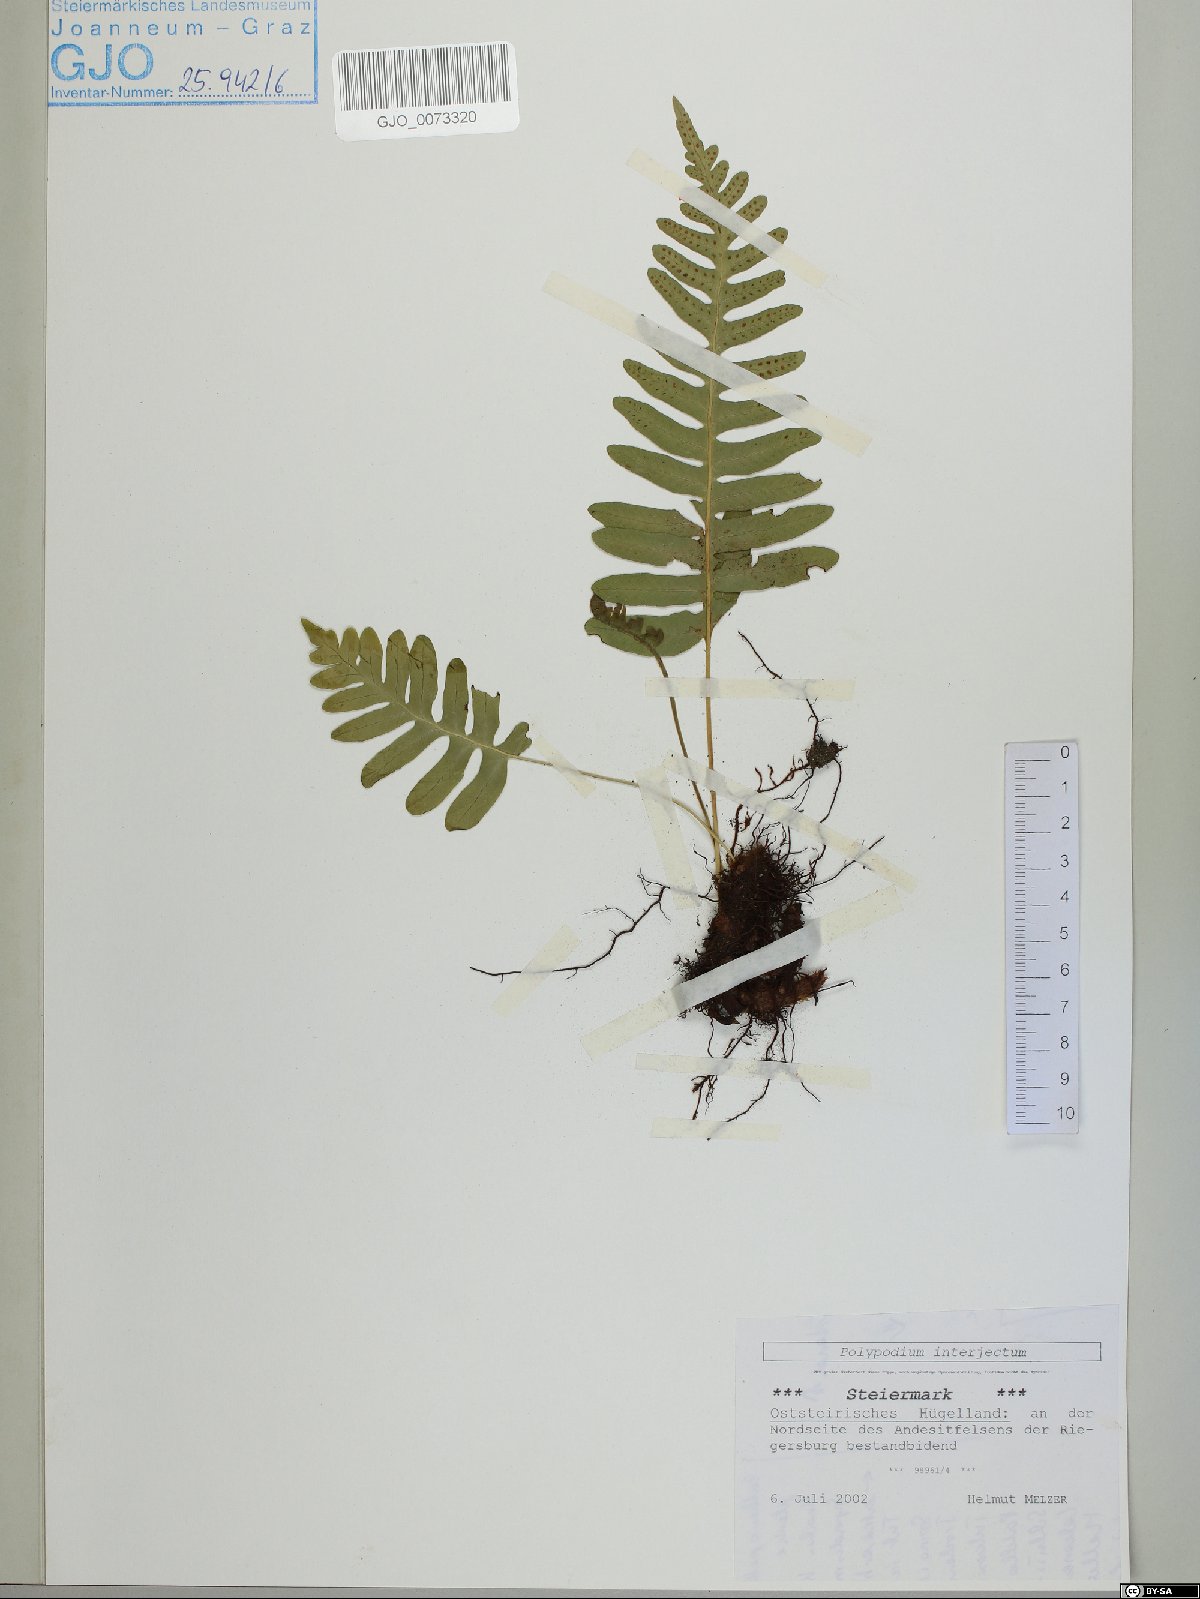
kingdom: Plantae
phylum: Tracheophyta
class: Polypodiopsida
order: Polypodiales
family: Polypodiaceae
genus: Polypodium
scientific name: Polypodium interjectum
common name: Intermediate polypody
